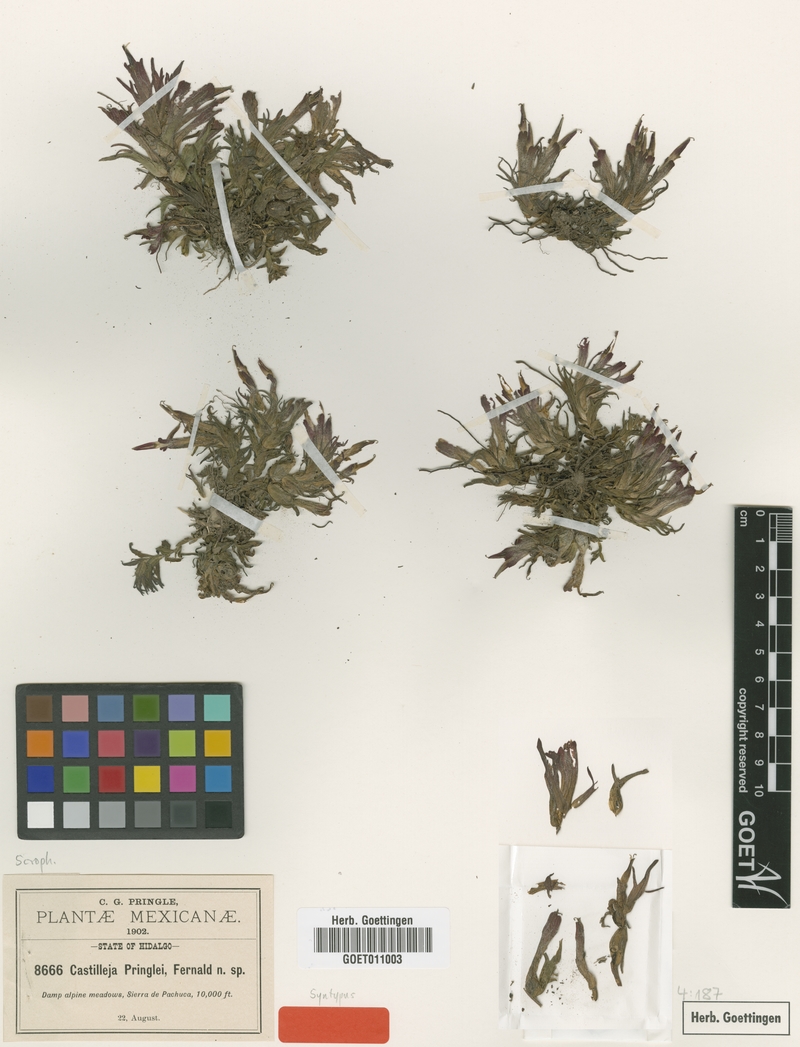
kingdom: Plantae
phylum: Tracheophyta
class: Magnoliopsida
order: Lamiales
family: Orobanchaceae
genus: Castilleja
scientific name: Castilleja pringlei
